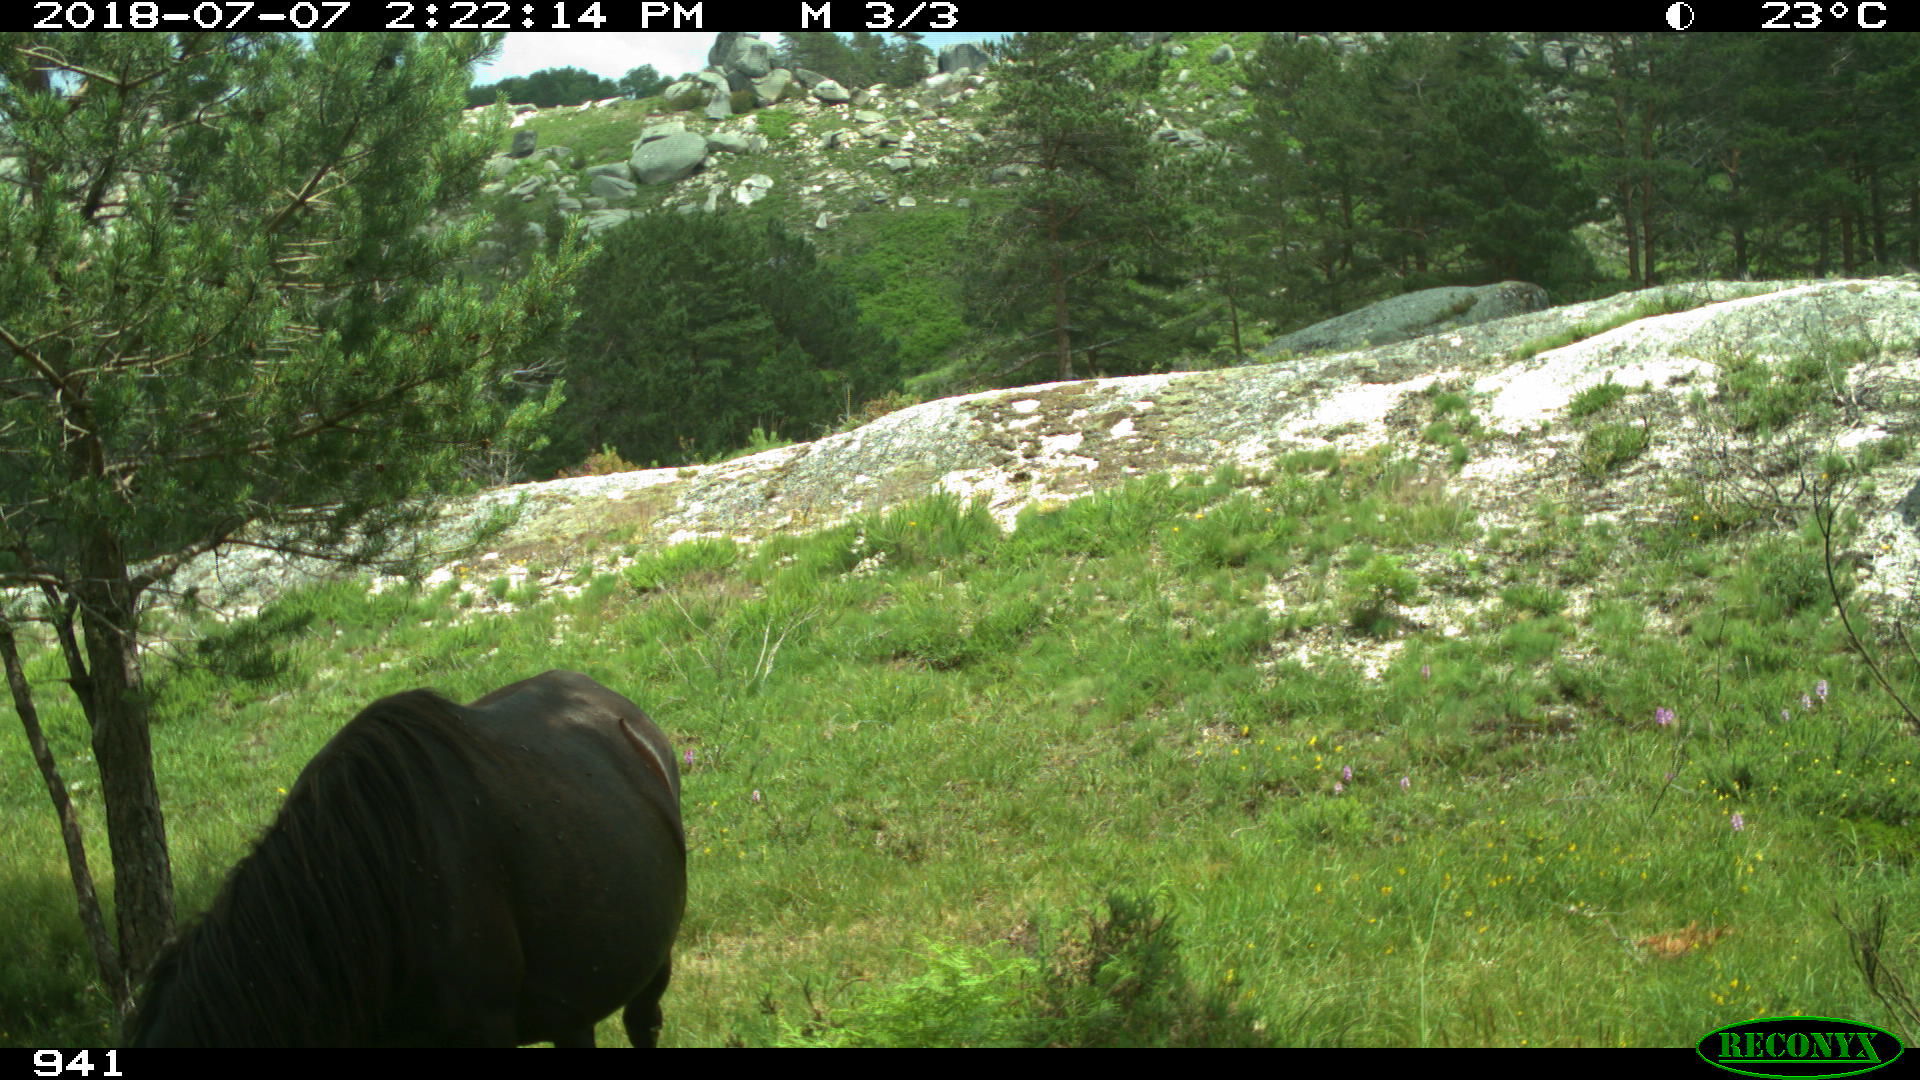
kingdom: Animalia
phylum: Chordata
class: Mammalia
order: Perissodactyla
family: Equidae
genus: Equus
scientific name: Equus caballus
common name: Horse
